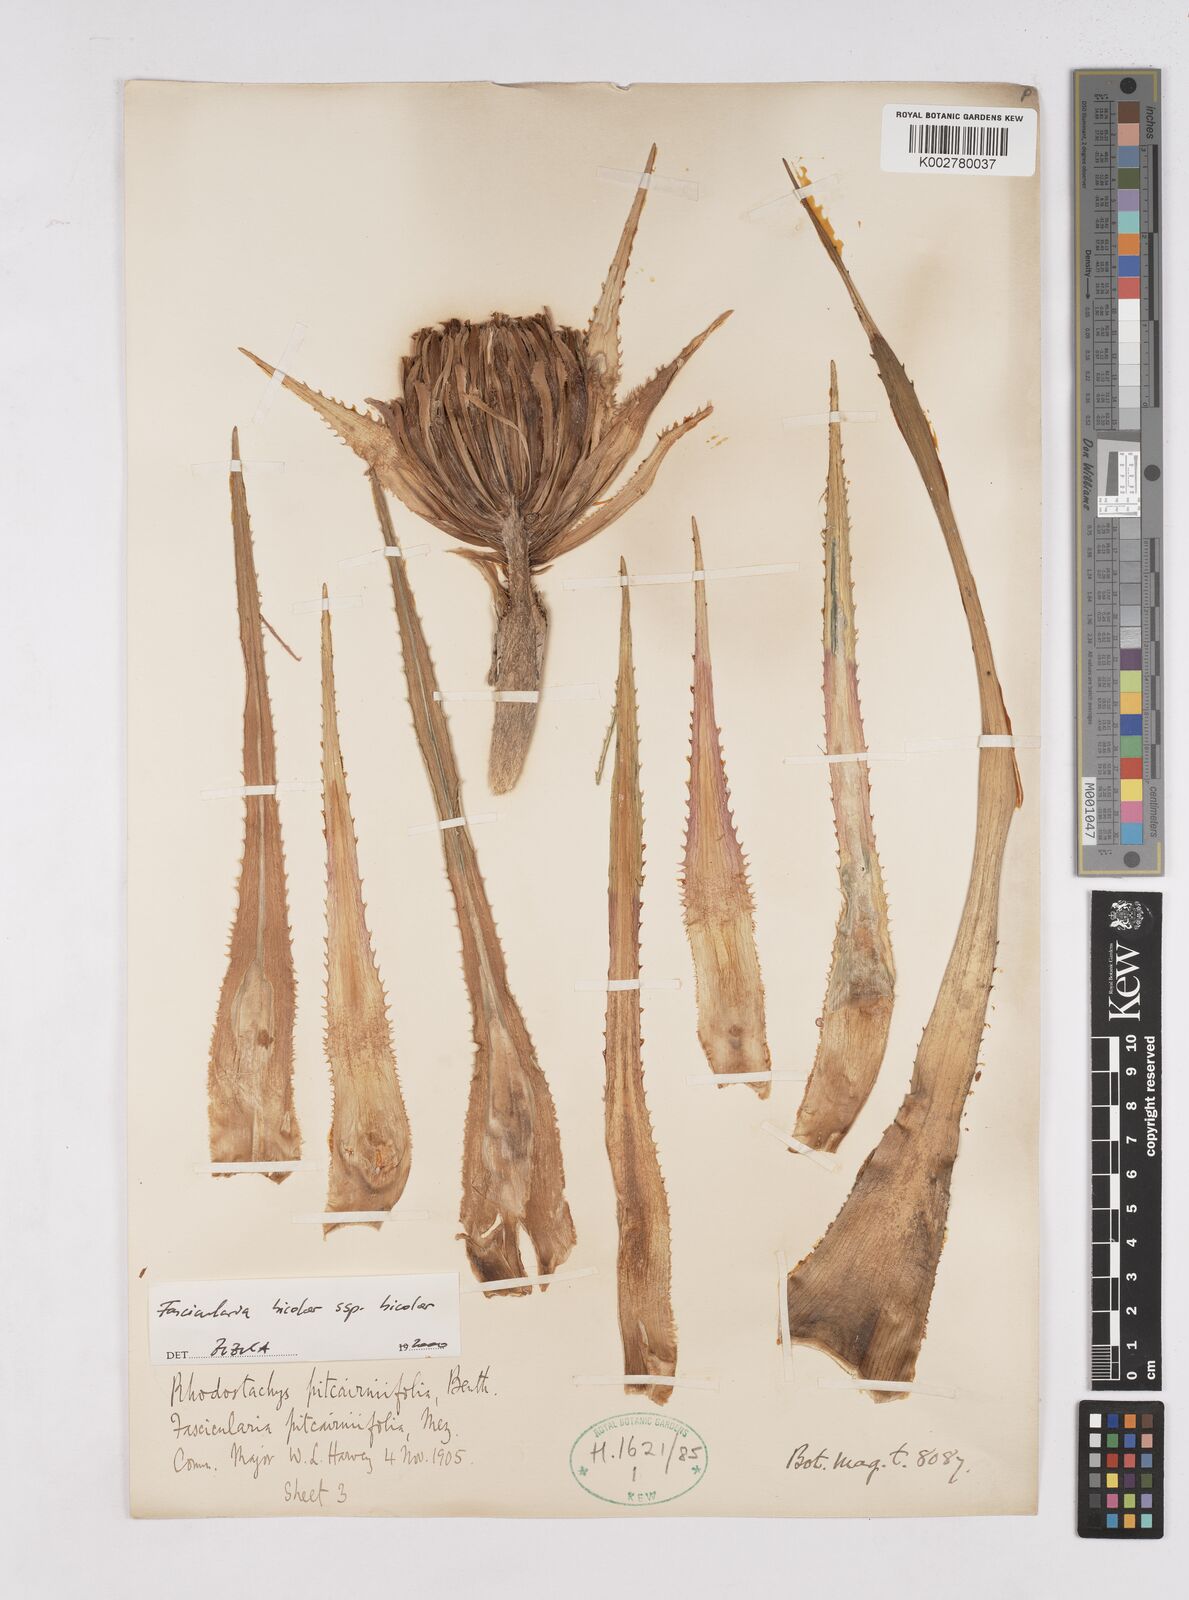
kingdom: Plantae
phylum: Tracheophyta
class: Liliopsida
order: Poales
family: Bromeliaceae
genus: Hechtia
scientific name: Hechtia pitcairniifolia
